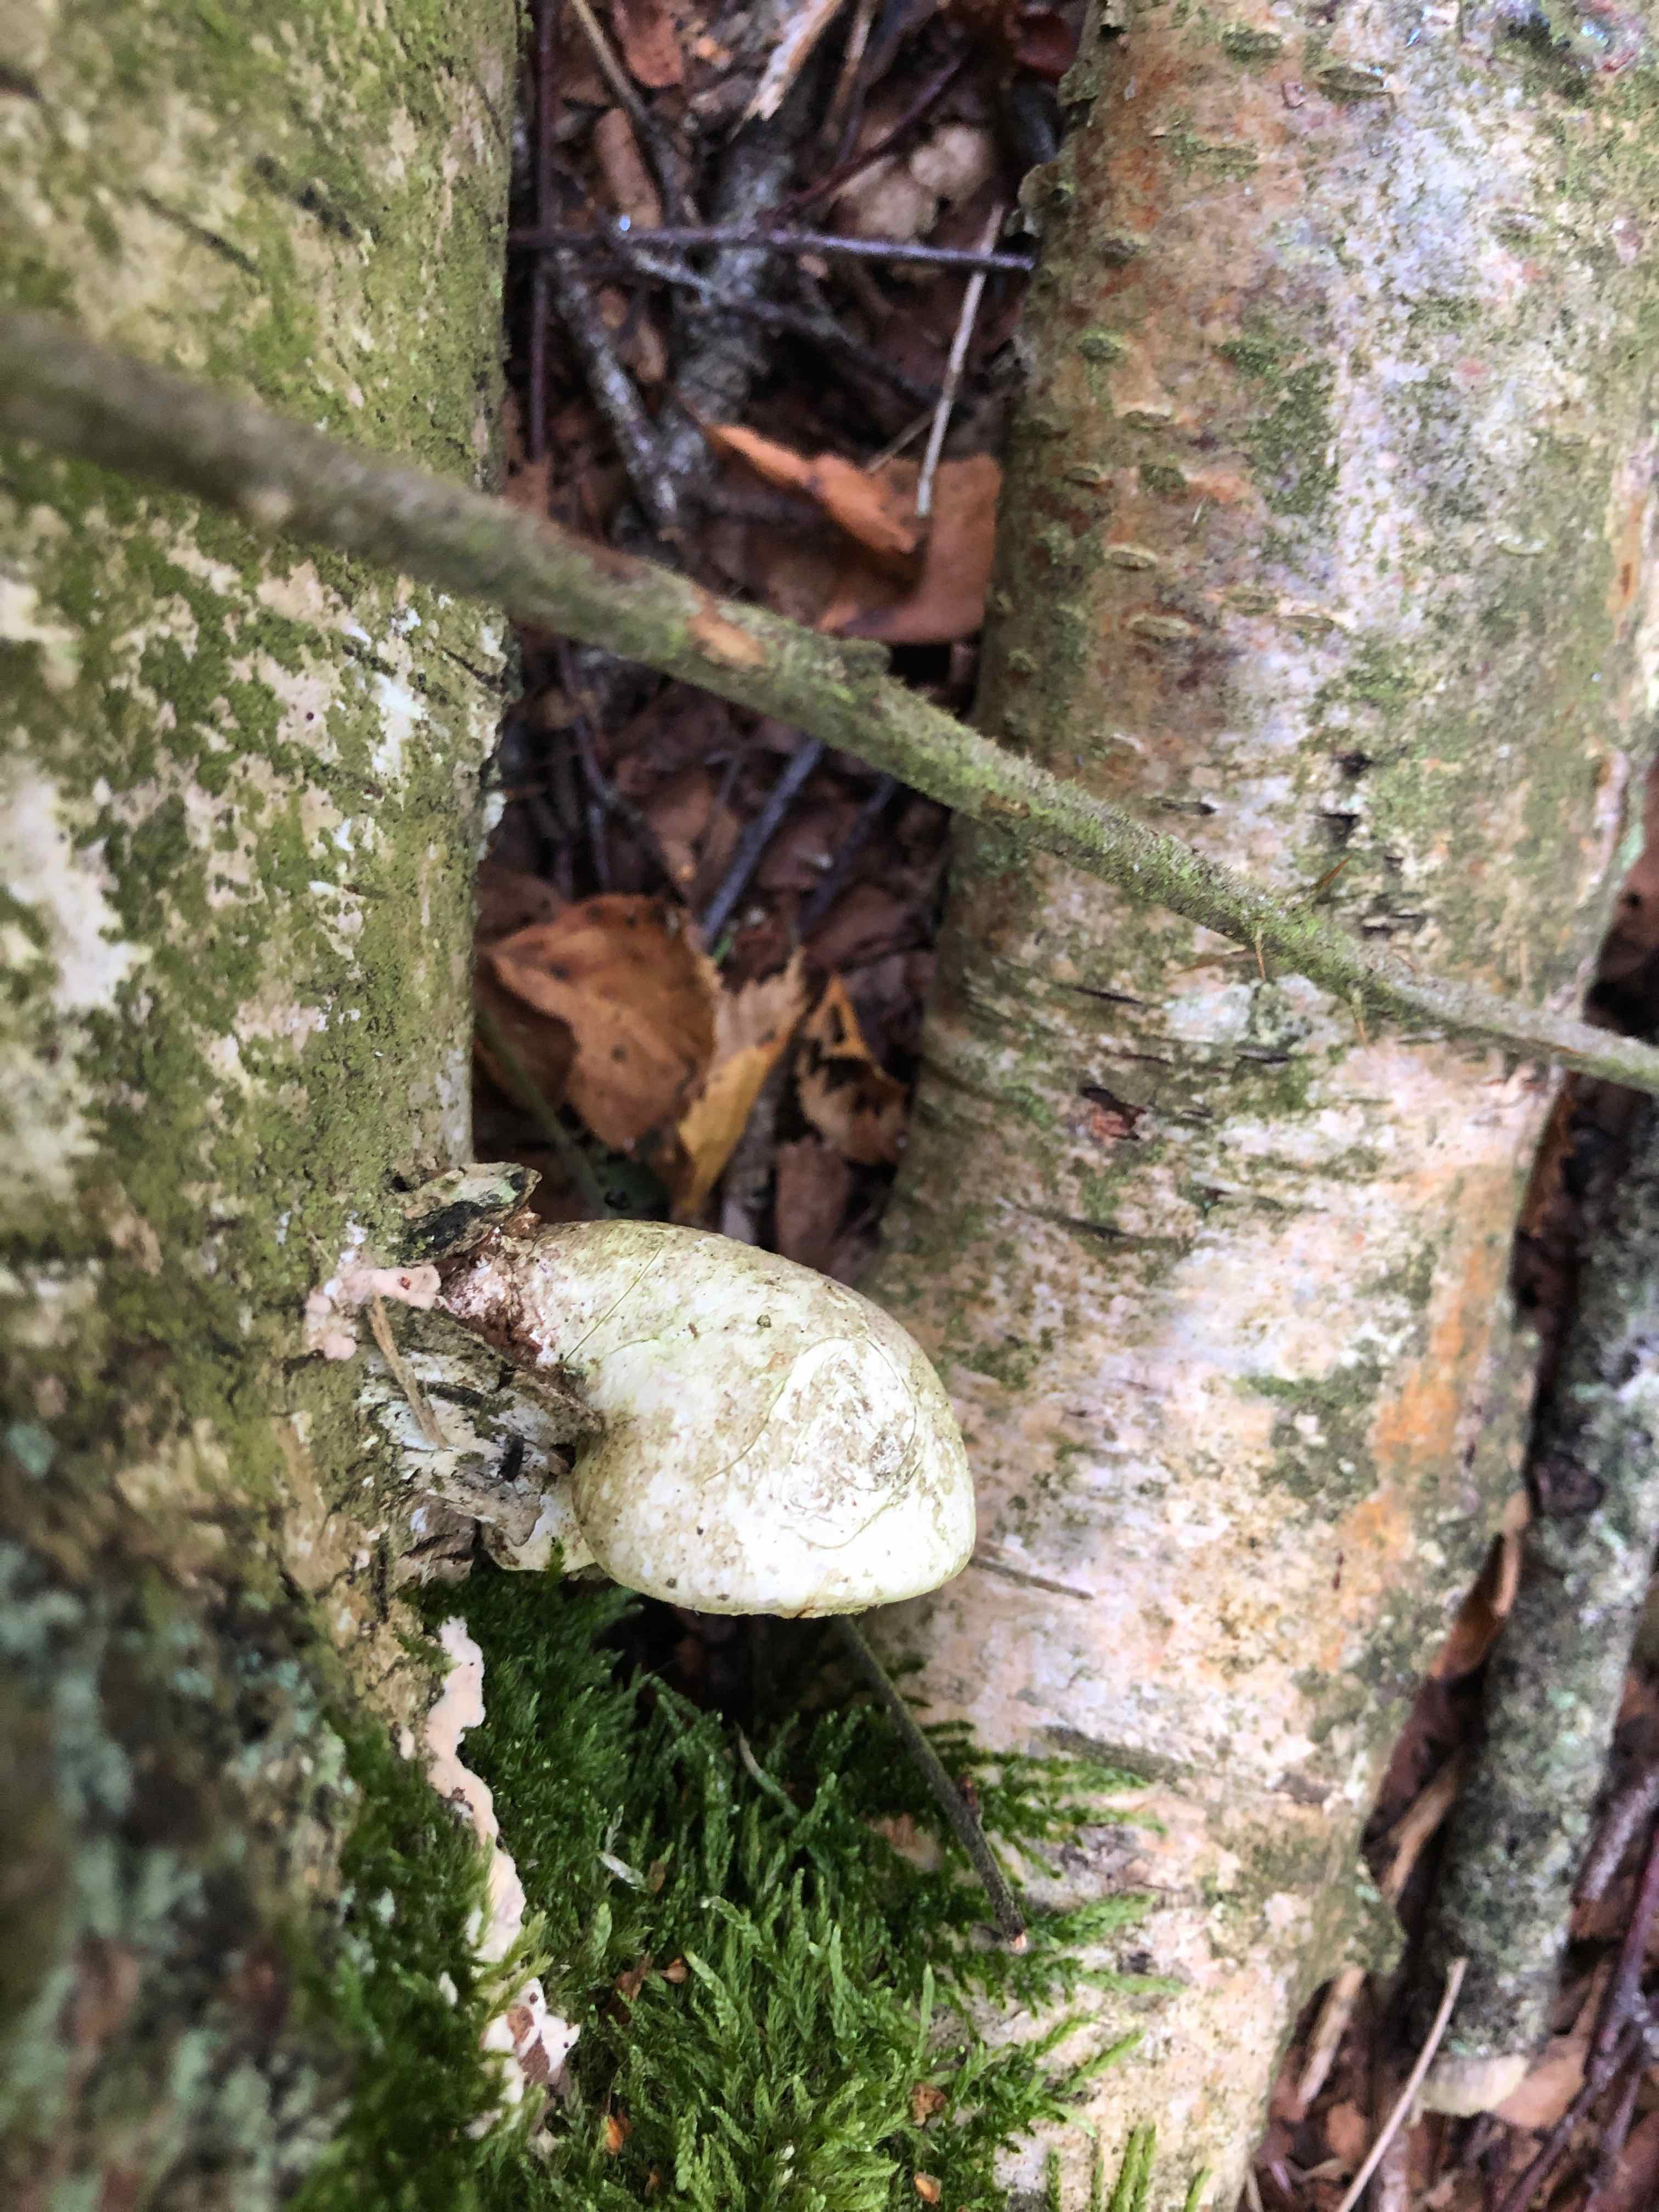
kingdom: Fungi
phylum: Basidiomycota
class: Agaricomycetes
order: Polyporales
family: Fomitopsidaceae
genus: Fomitopsis
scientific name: Fomitopsis betulina
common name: birkeporesvamp
